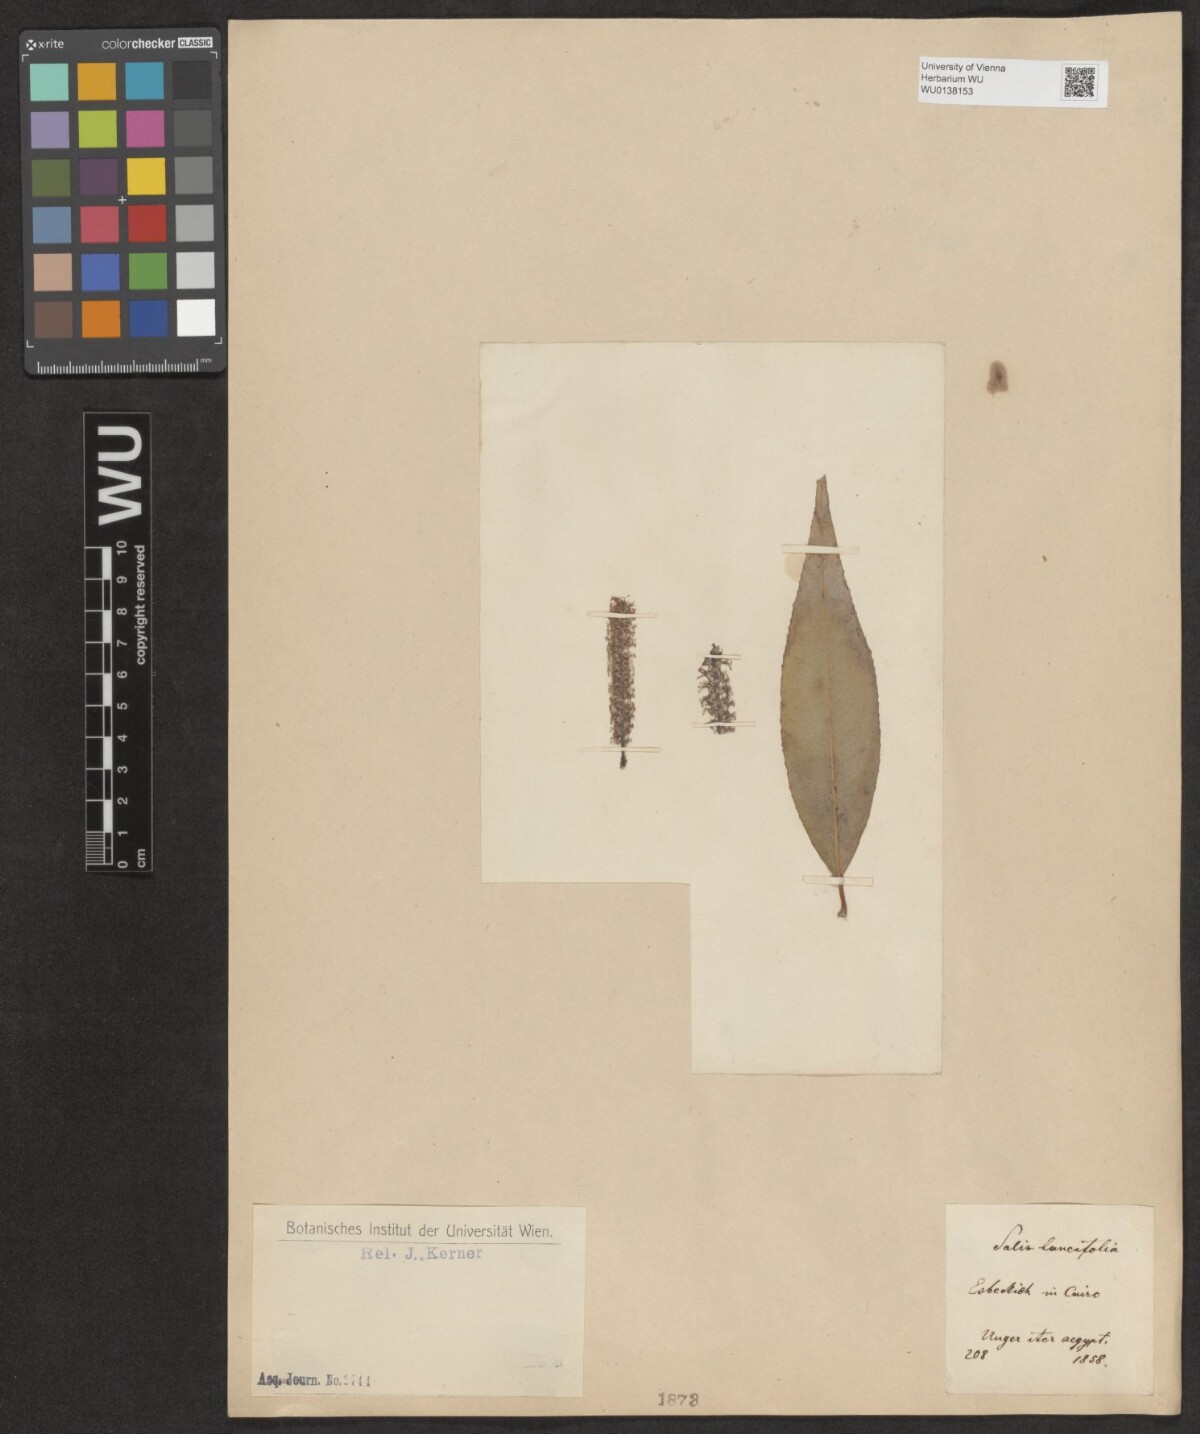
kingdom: Plantae
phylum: Tracheophyta
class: Magnoliopsida
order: Malpighiales
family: Salicaceae
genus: Salix
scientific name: Salix holosericea
